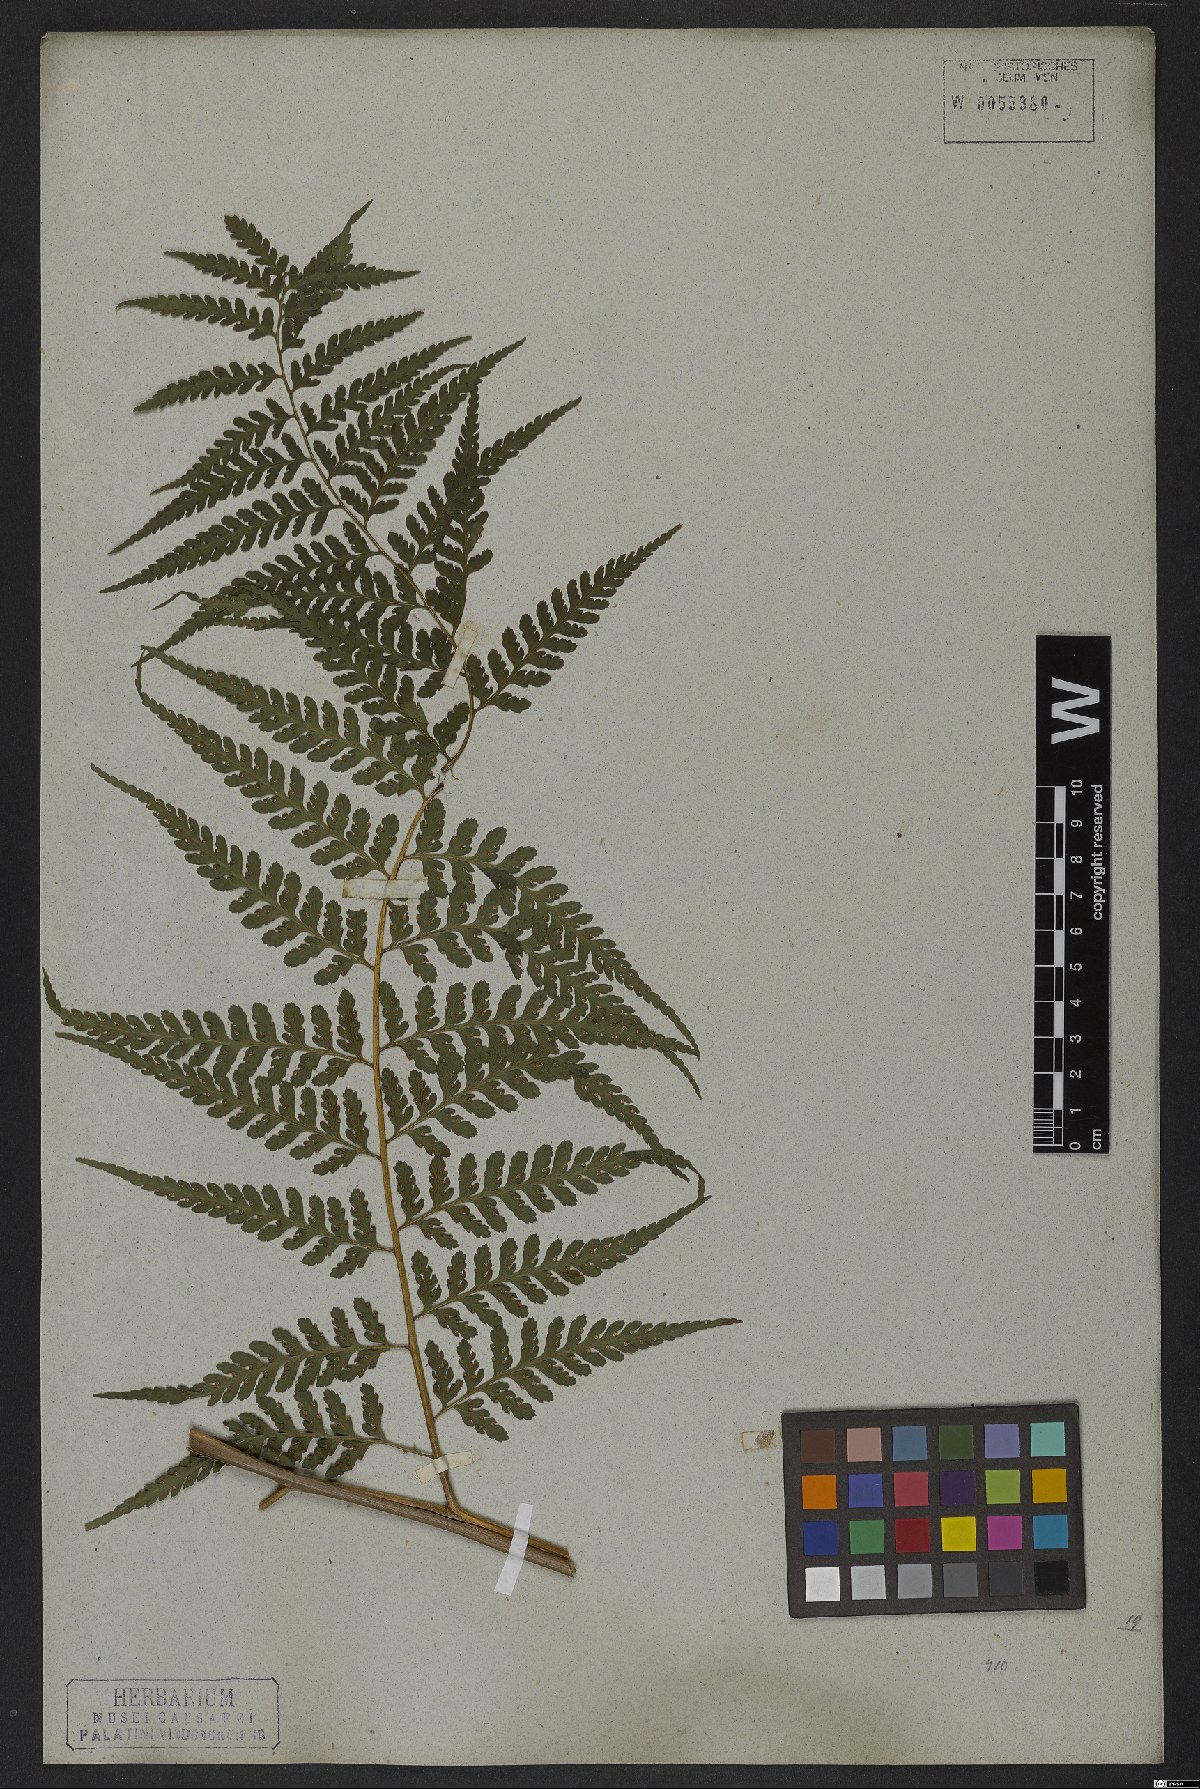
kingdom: Plantae
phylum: Tracheophyta
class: Polypodiopsida
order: Polypodiales
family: Dennstaedtiaceae
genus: Dennstaedtia
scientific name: Dennstaedtia cicutaria
